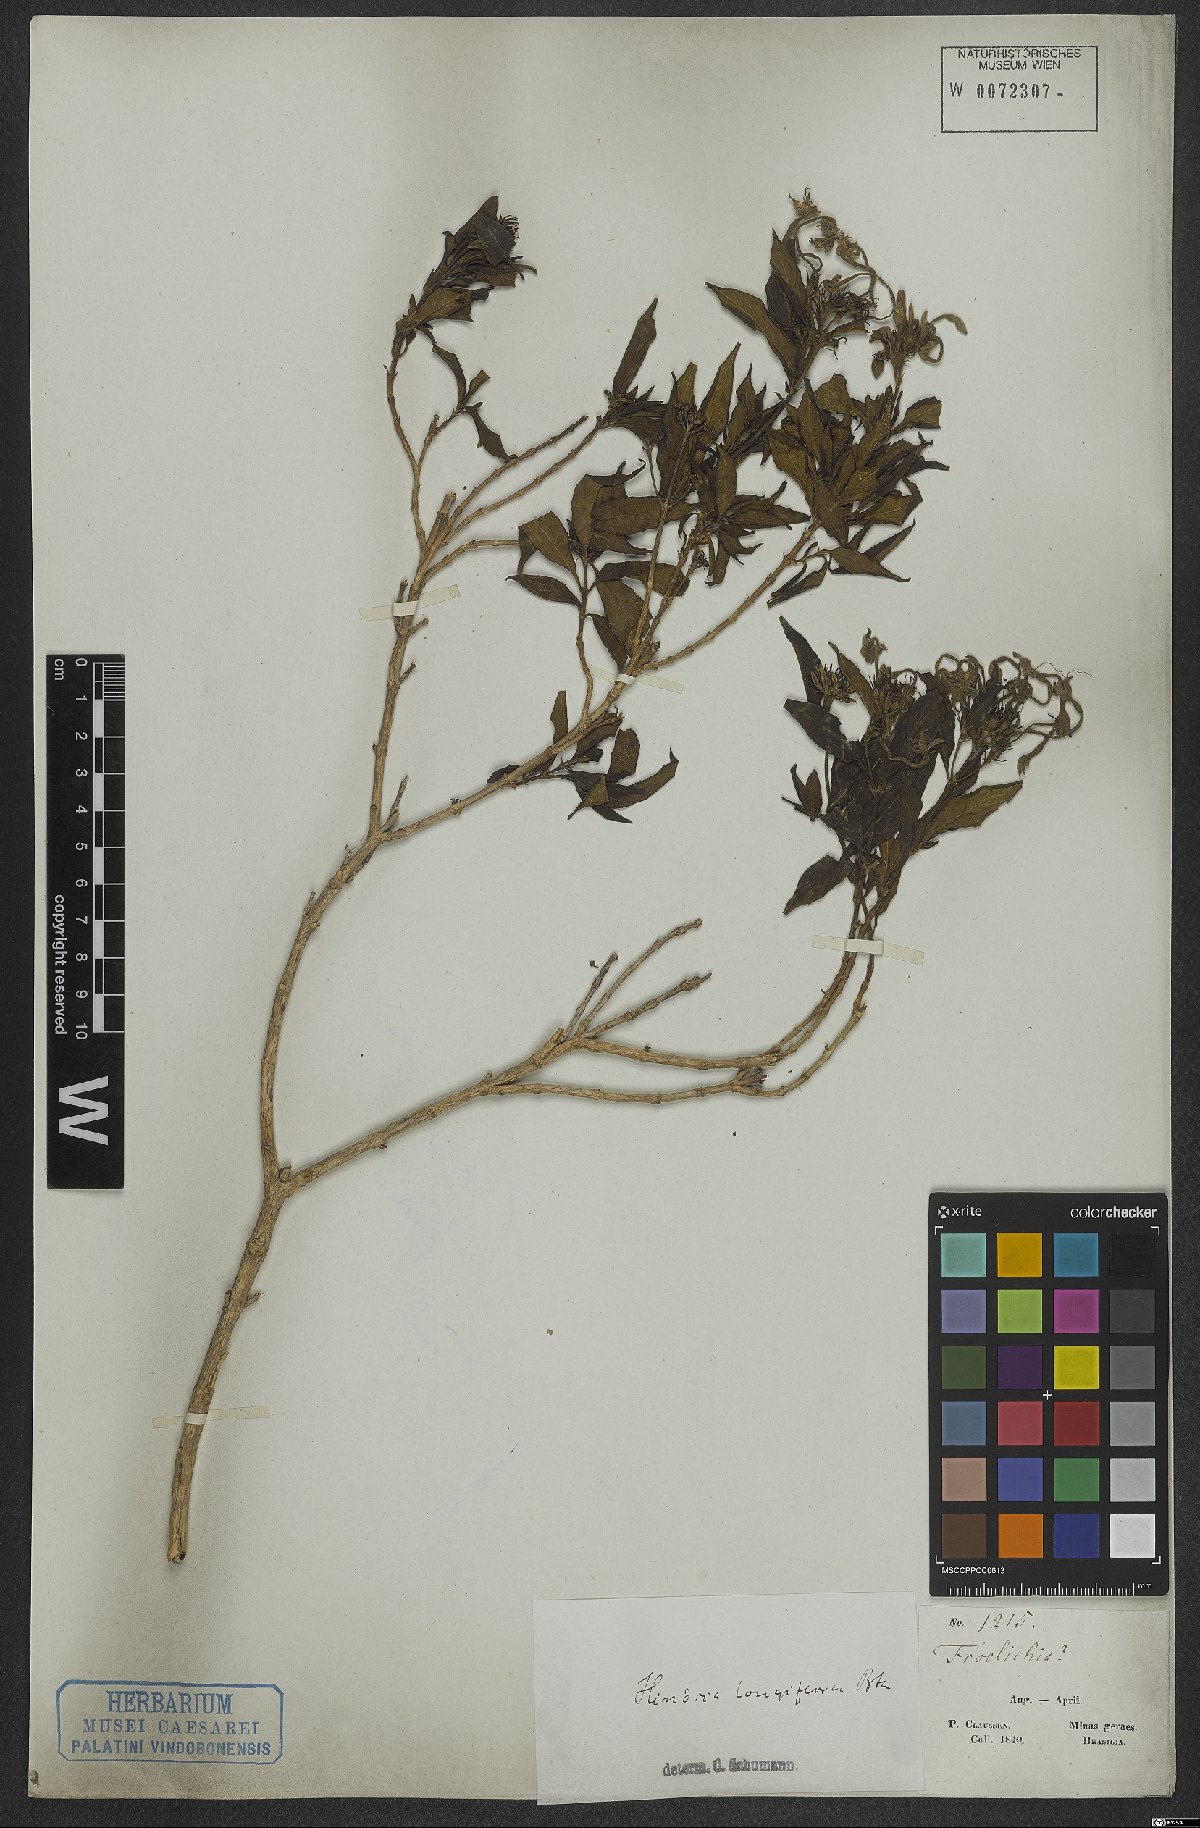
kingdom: Plantae
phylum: Tracheophyta
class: Magnoliopsida
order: Gentianales
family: Rubiaceae
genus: Hindsia
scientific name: Hindsia longiflora
